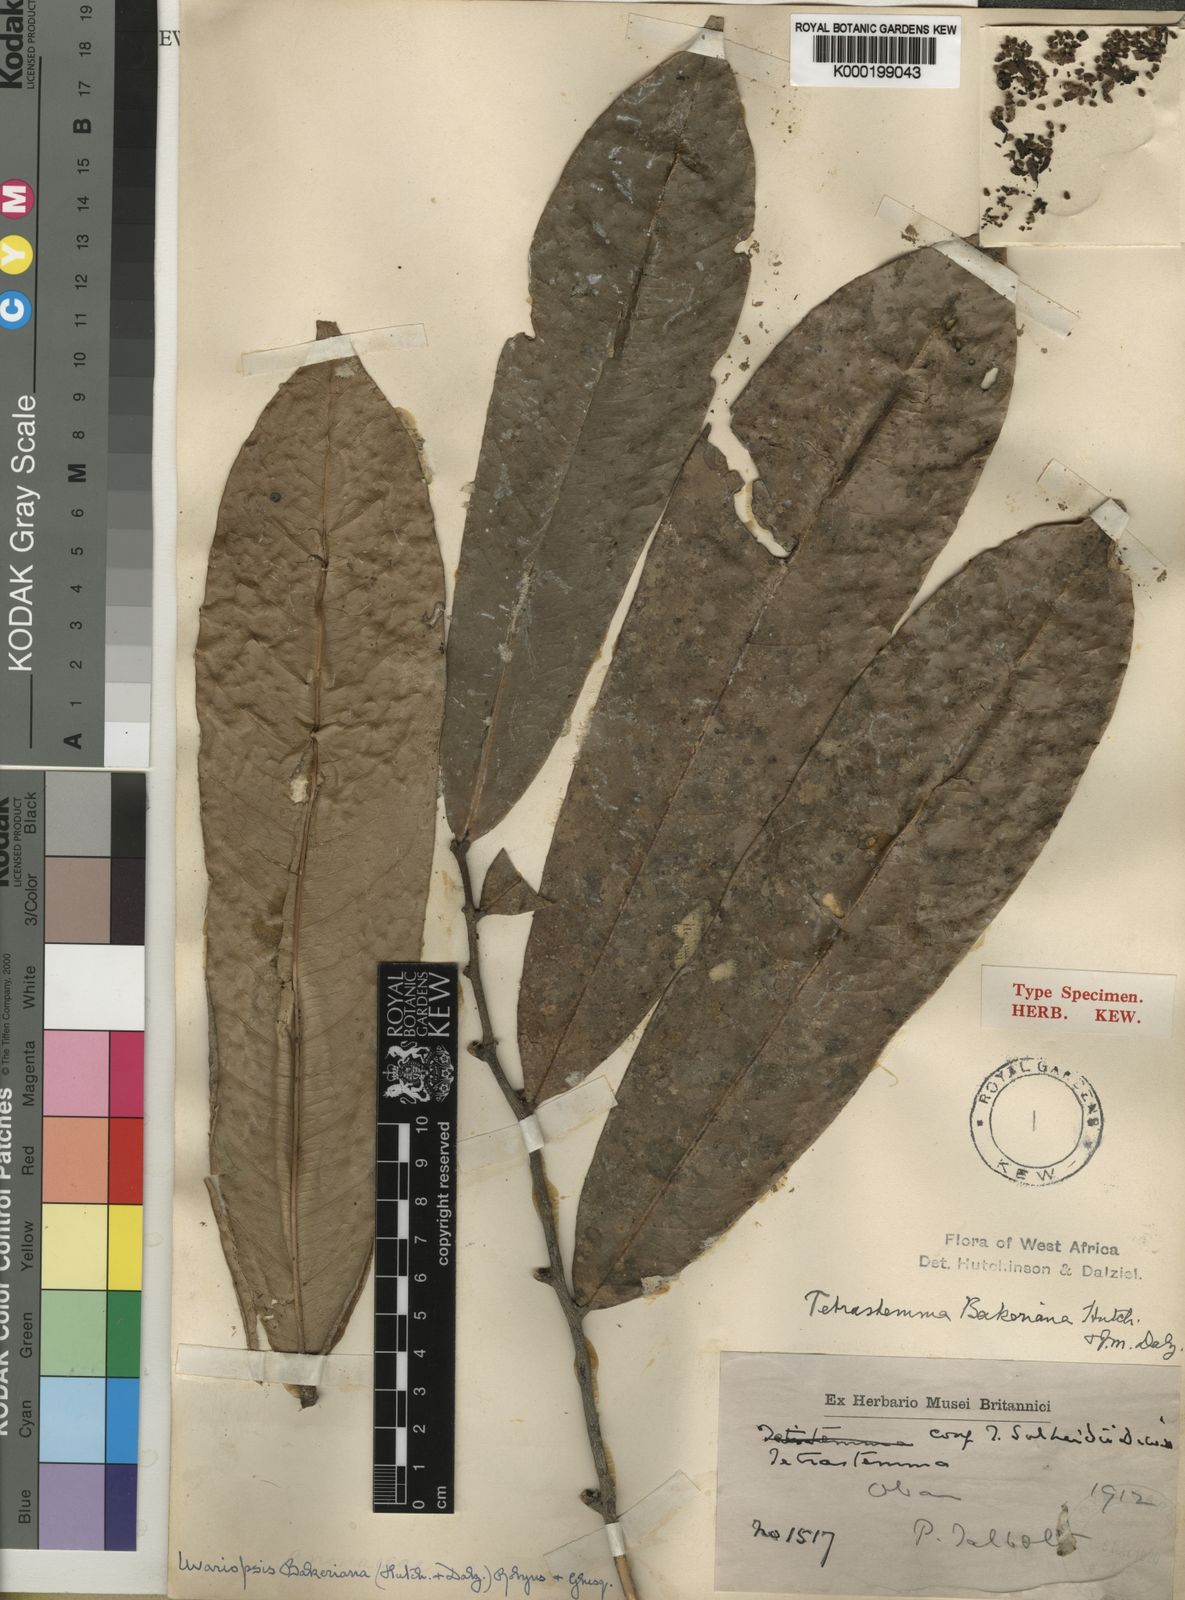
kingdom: Plantae
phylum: Tracheophyta
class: Magnoliopsida
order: Magnoliales
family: Annonaceae
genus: Uvariopsis
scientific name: Uvariopsis bakeriana
